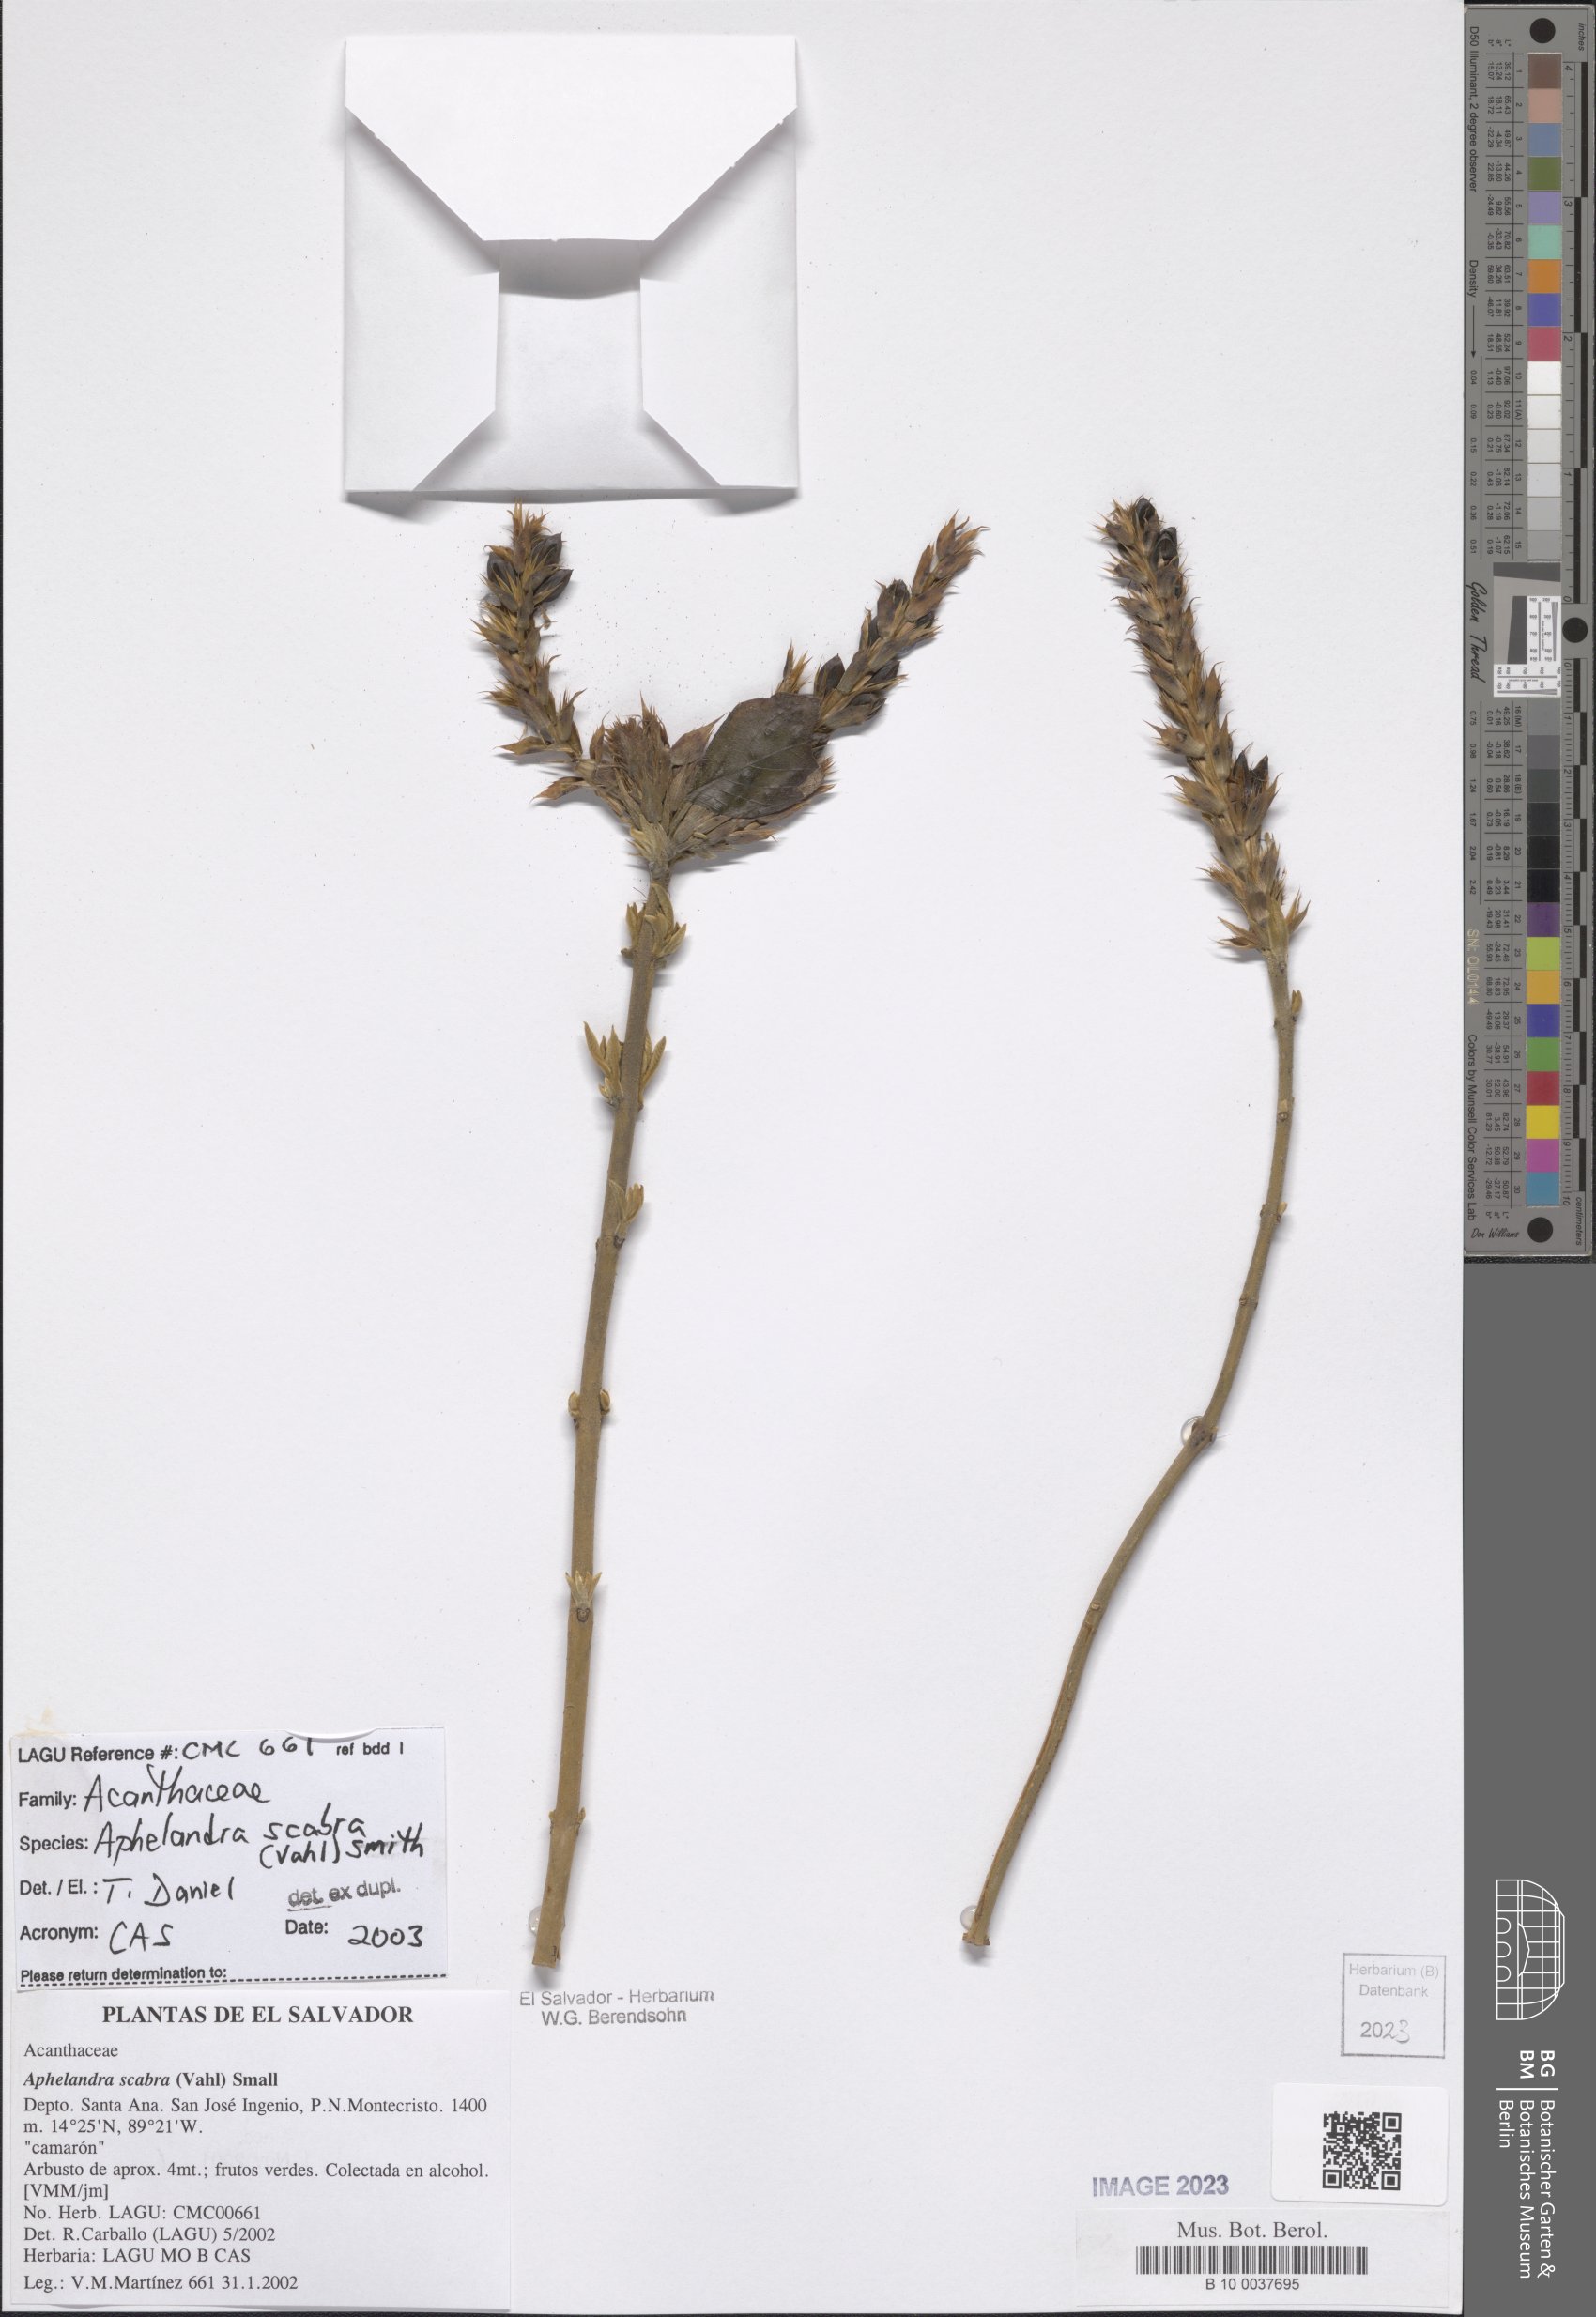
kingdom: Plantae
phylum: Tracheophyta
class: Magnoliopsida
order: Lamiales
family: Acanthaceae
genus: Aphelandra
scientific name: Aphelandra scabra
